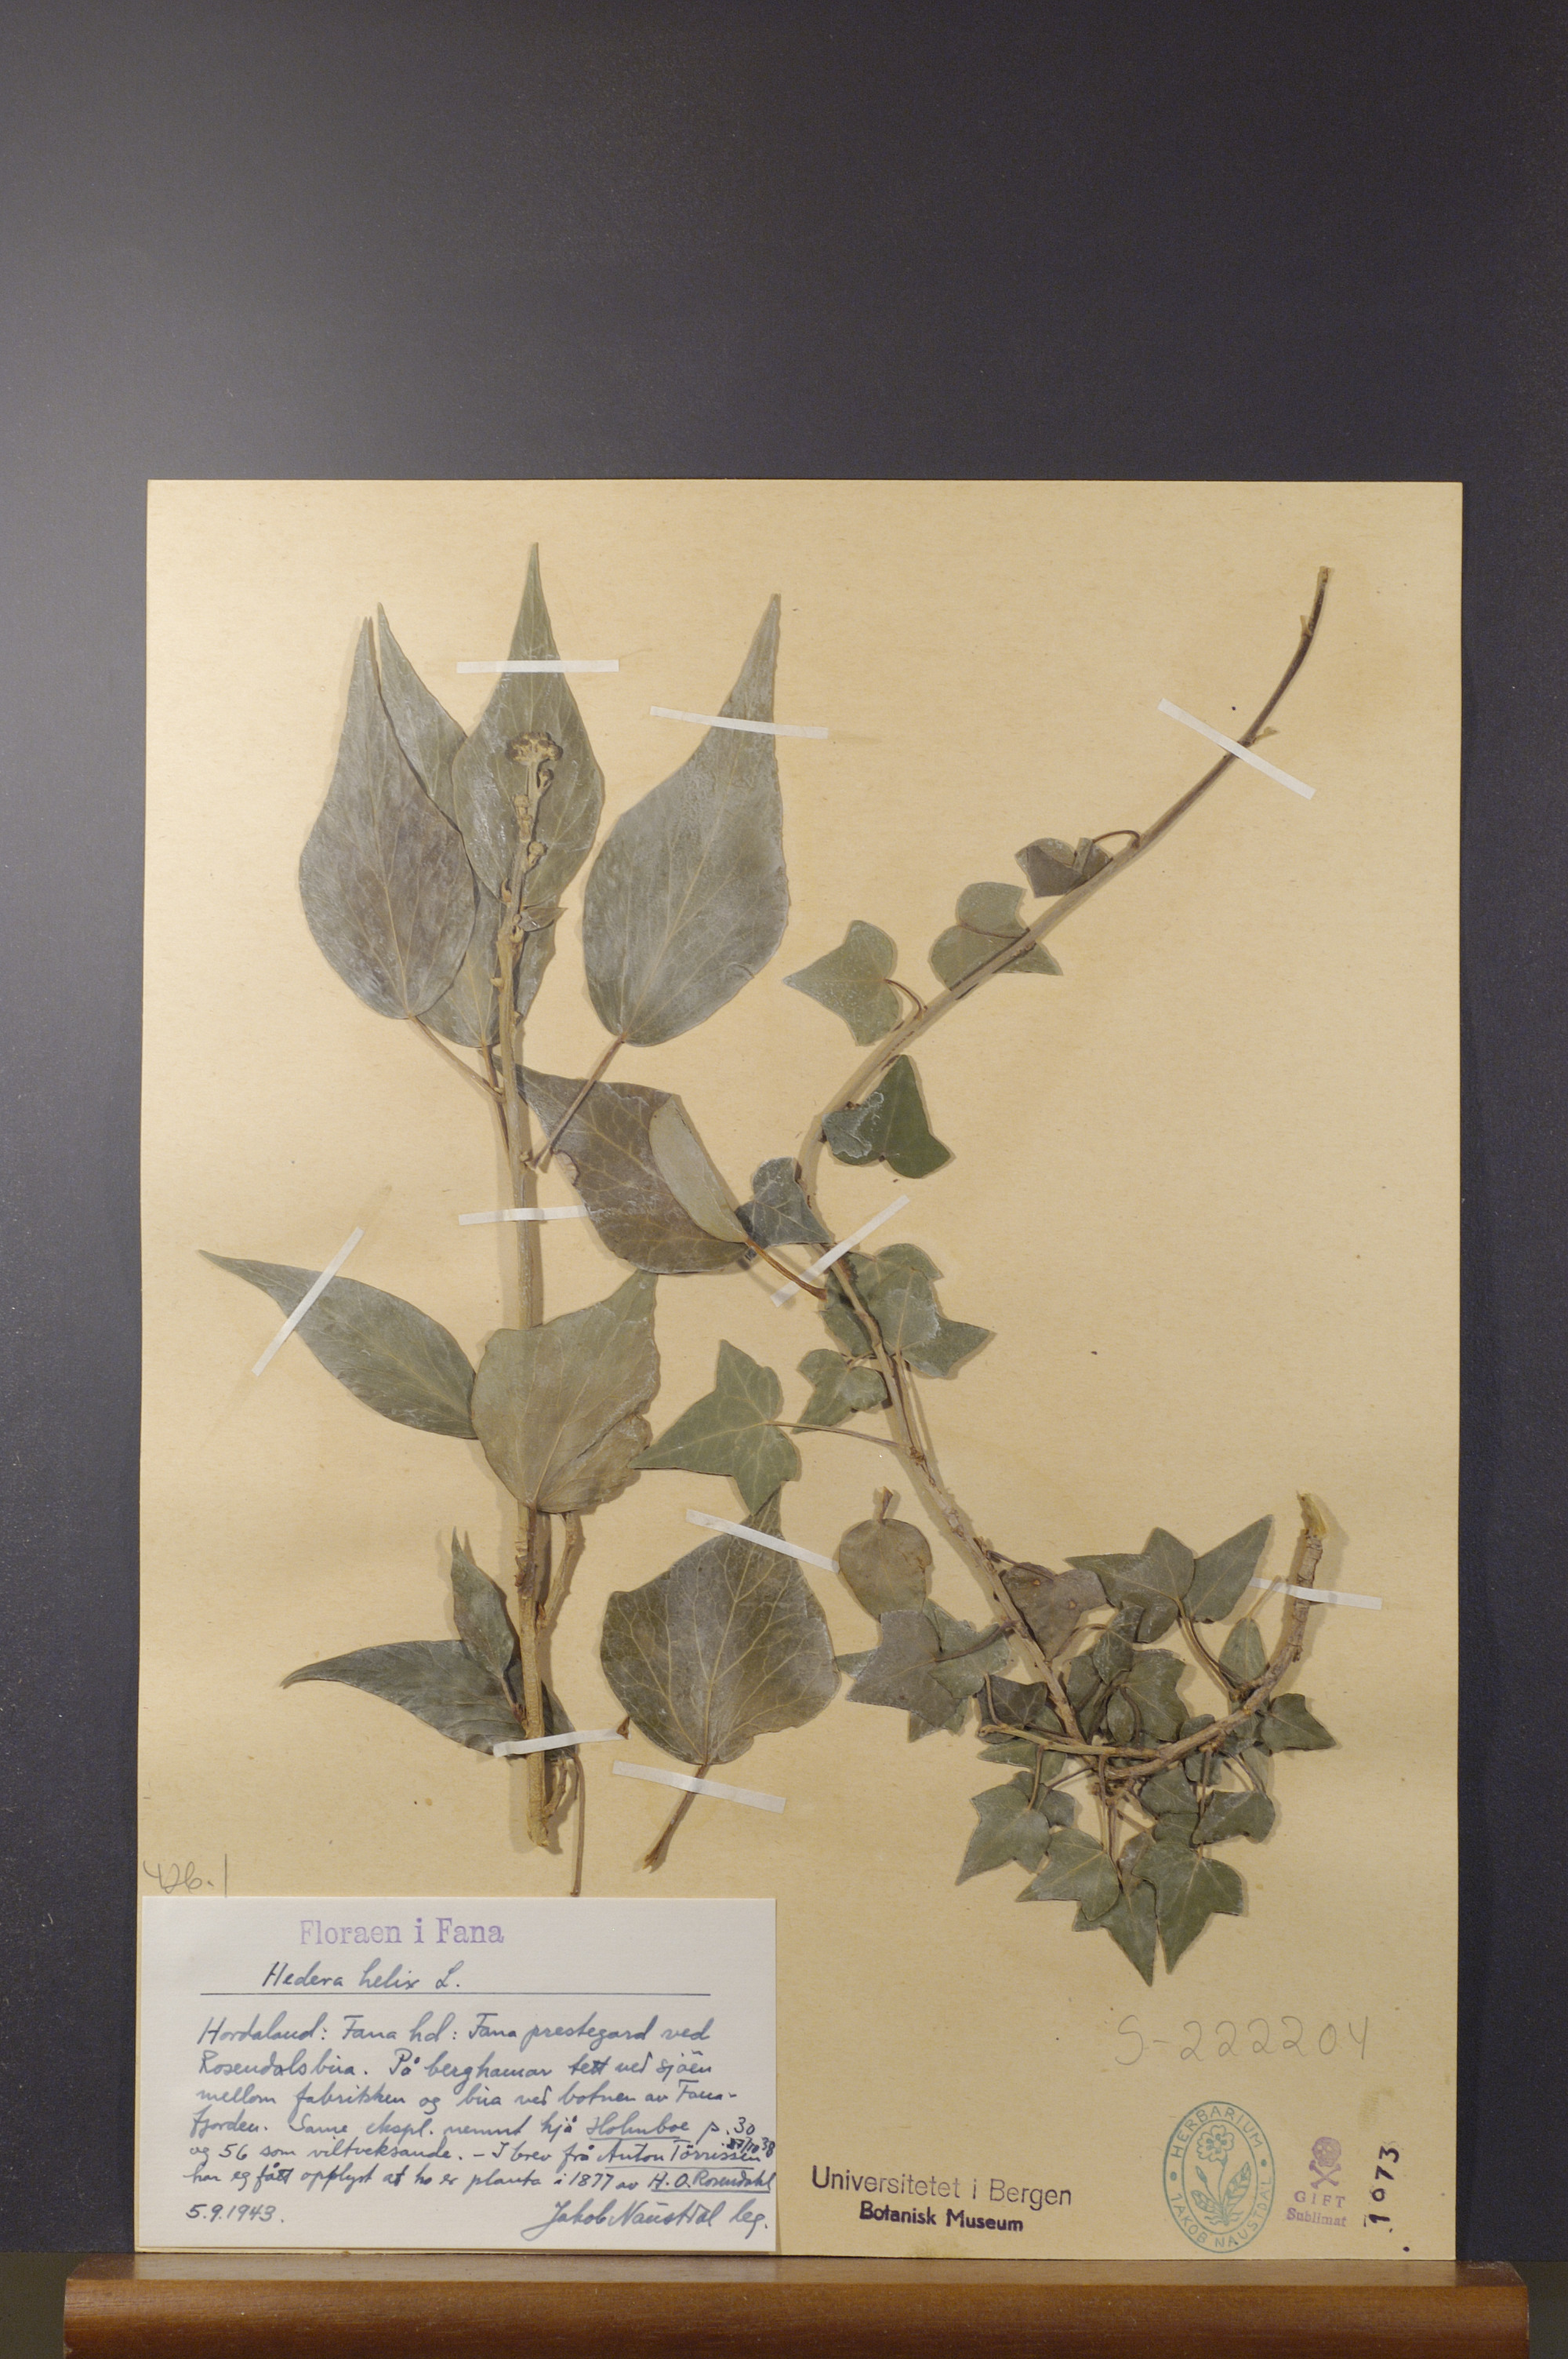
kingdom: Plantae
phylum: Tracheophyta
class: Magnoliopsida
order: Apiales
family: Araliaceae
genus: Hedera
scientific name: Hedera helix
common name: Ivy
